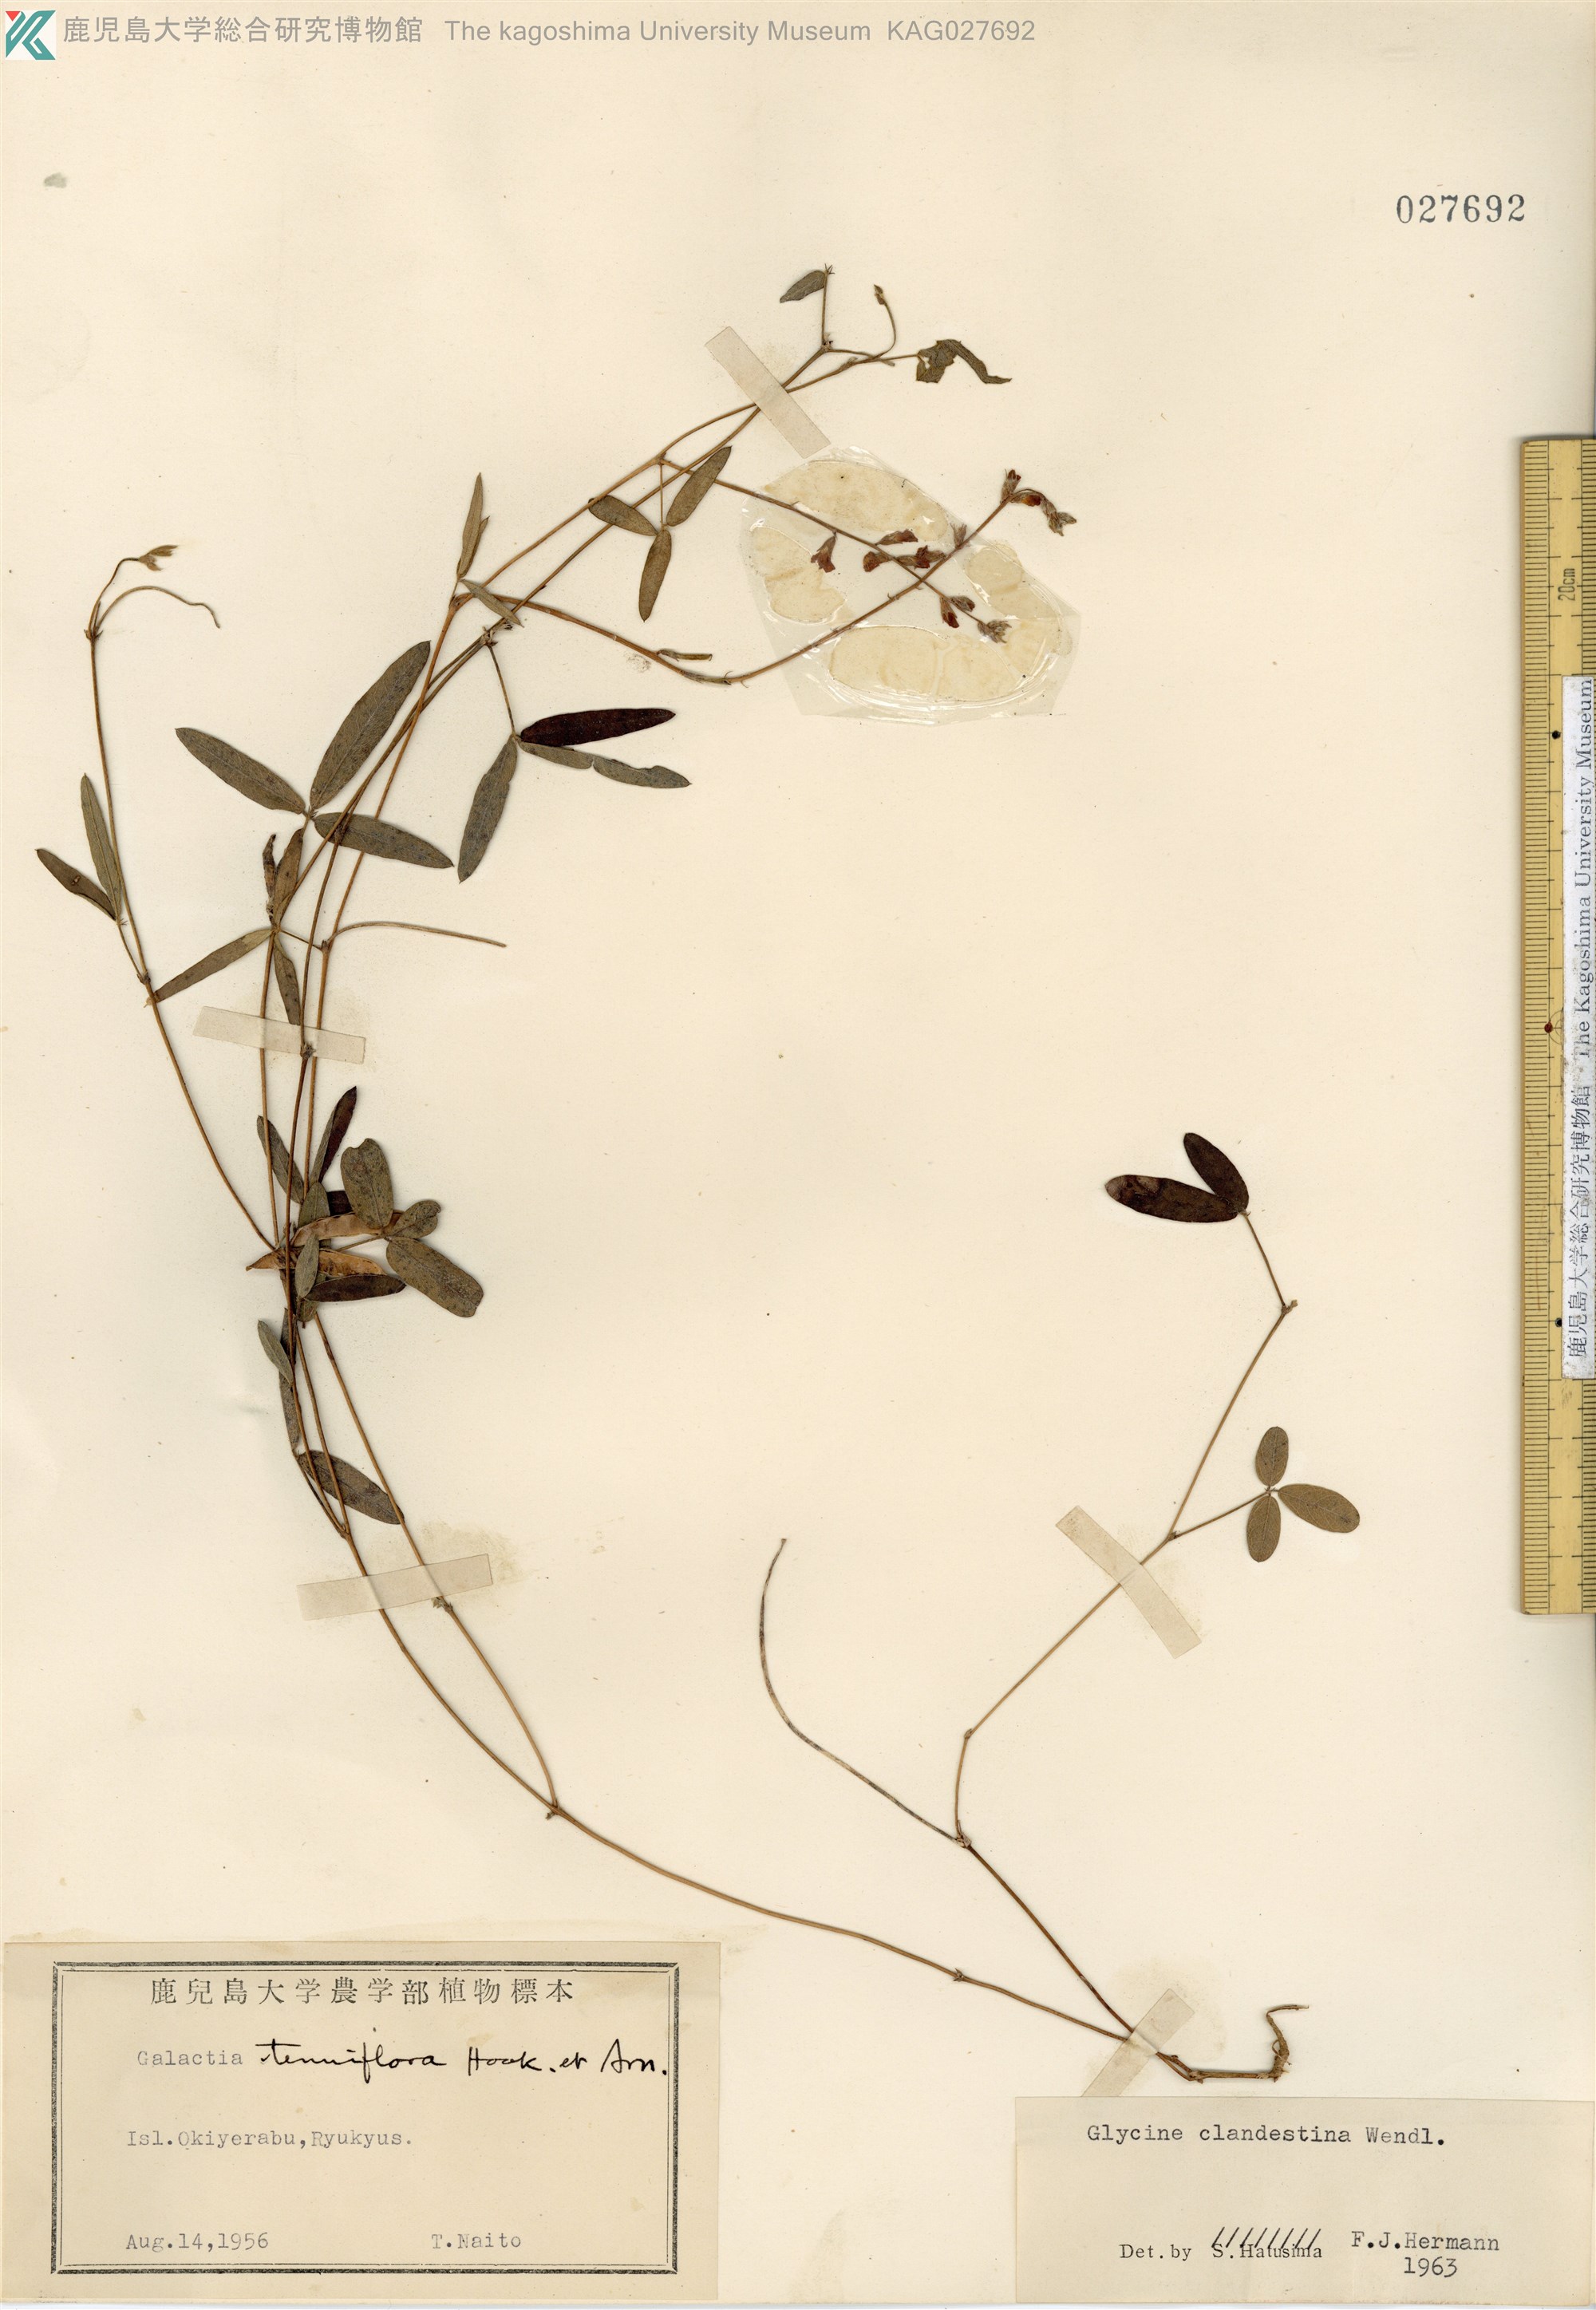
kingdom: Plantae
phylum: Tracheophyta
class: Magnoliopsida
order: Fabales
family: Fabaceae
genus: Glycine
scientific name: Glycine tabacina
